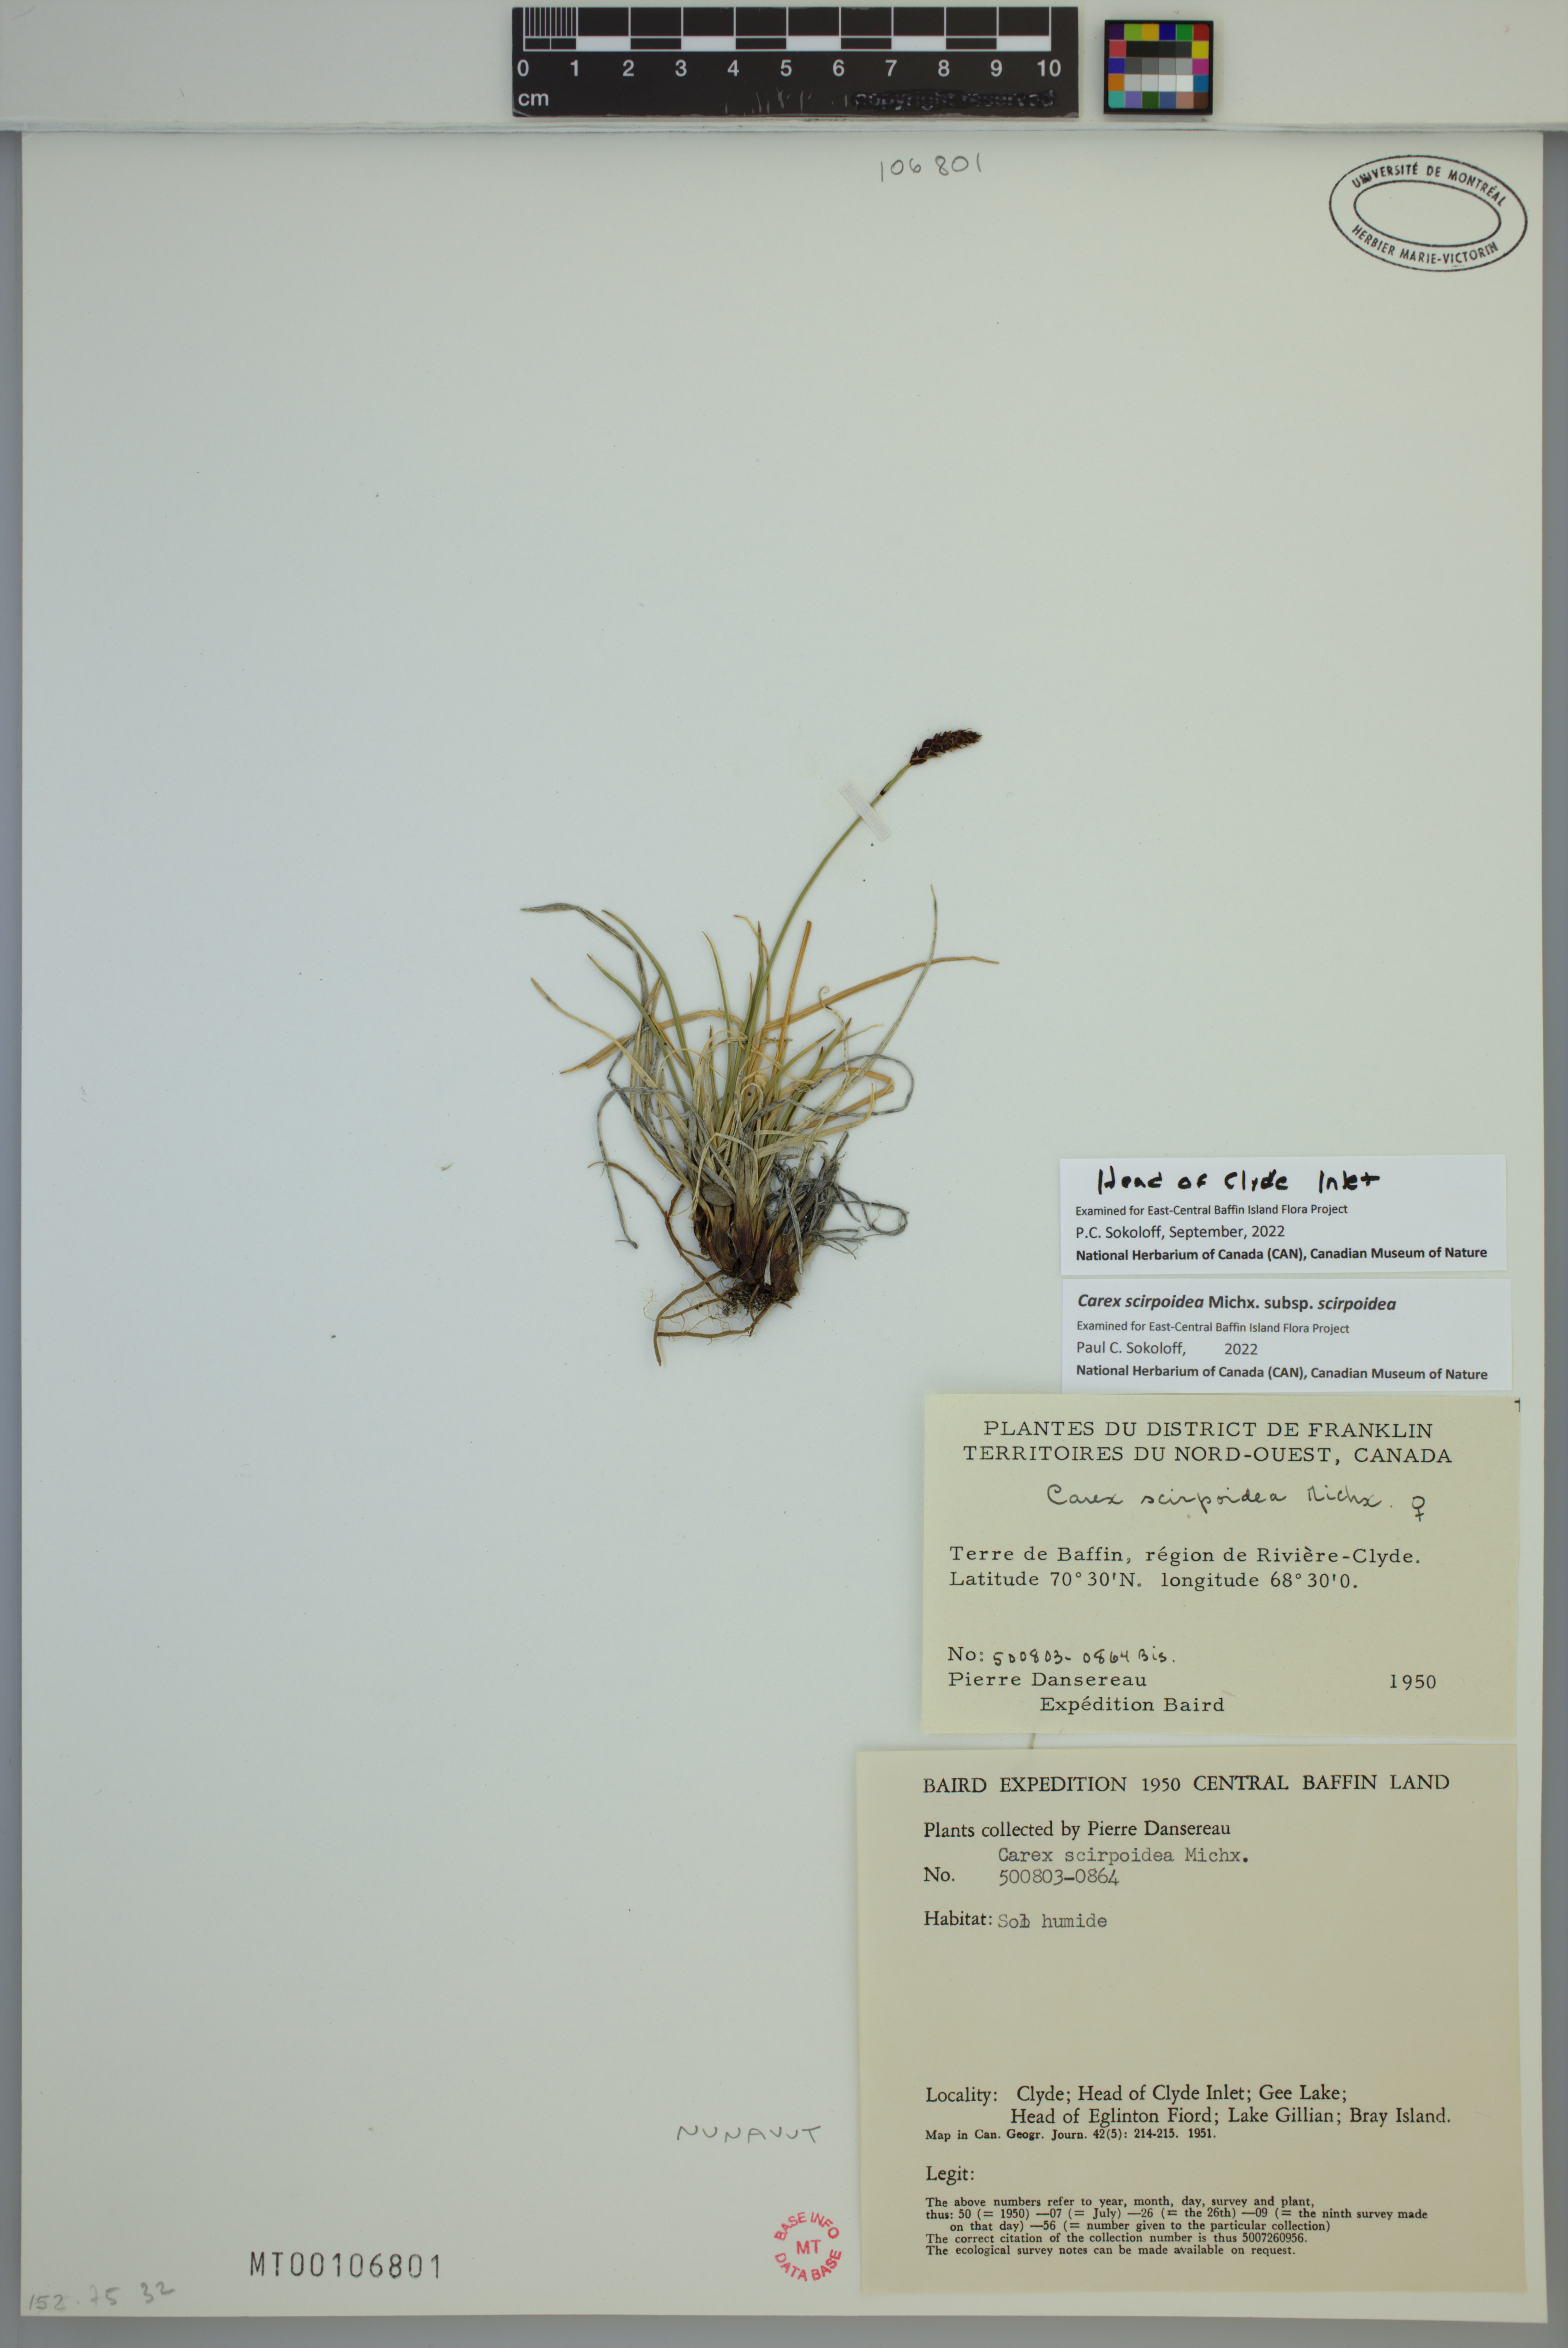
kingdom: Plantae
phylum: Tracheophyta
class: Liliopsida
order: Poales
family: Cyperaceae
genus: Carex
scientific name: Carex scirpoidea
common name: Canada single-spike sedge
